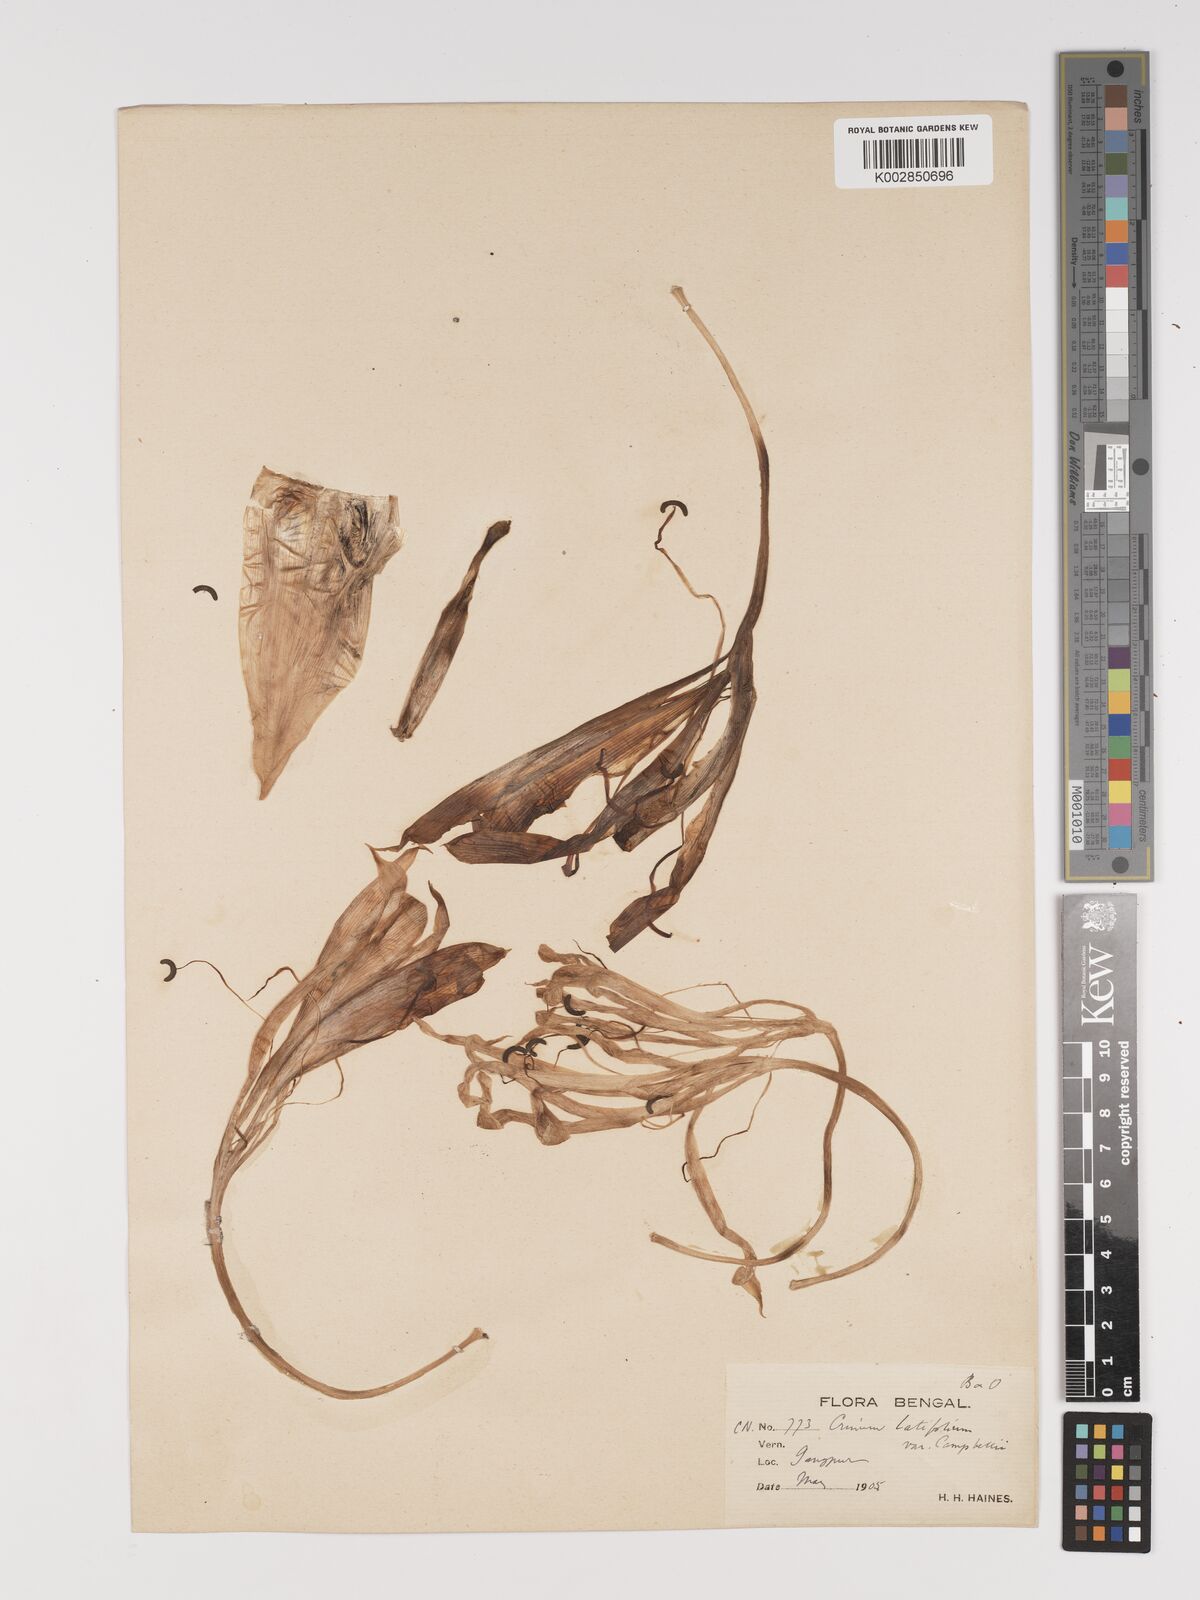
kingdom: Plantae
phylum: Tracheophyta
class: Liliopsida
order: Asparagales
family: Amaryllidaceae
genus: Crinum
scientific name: Crinum latifolium
